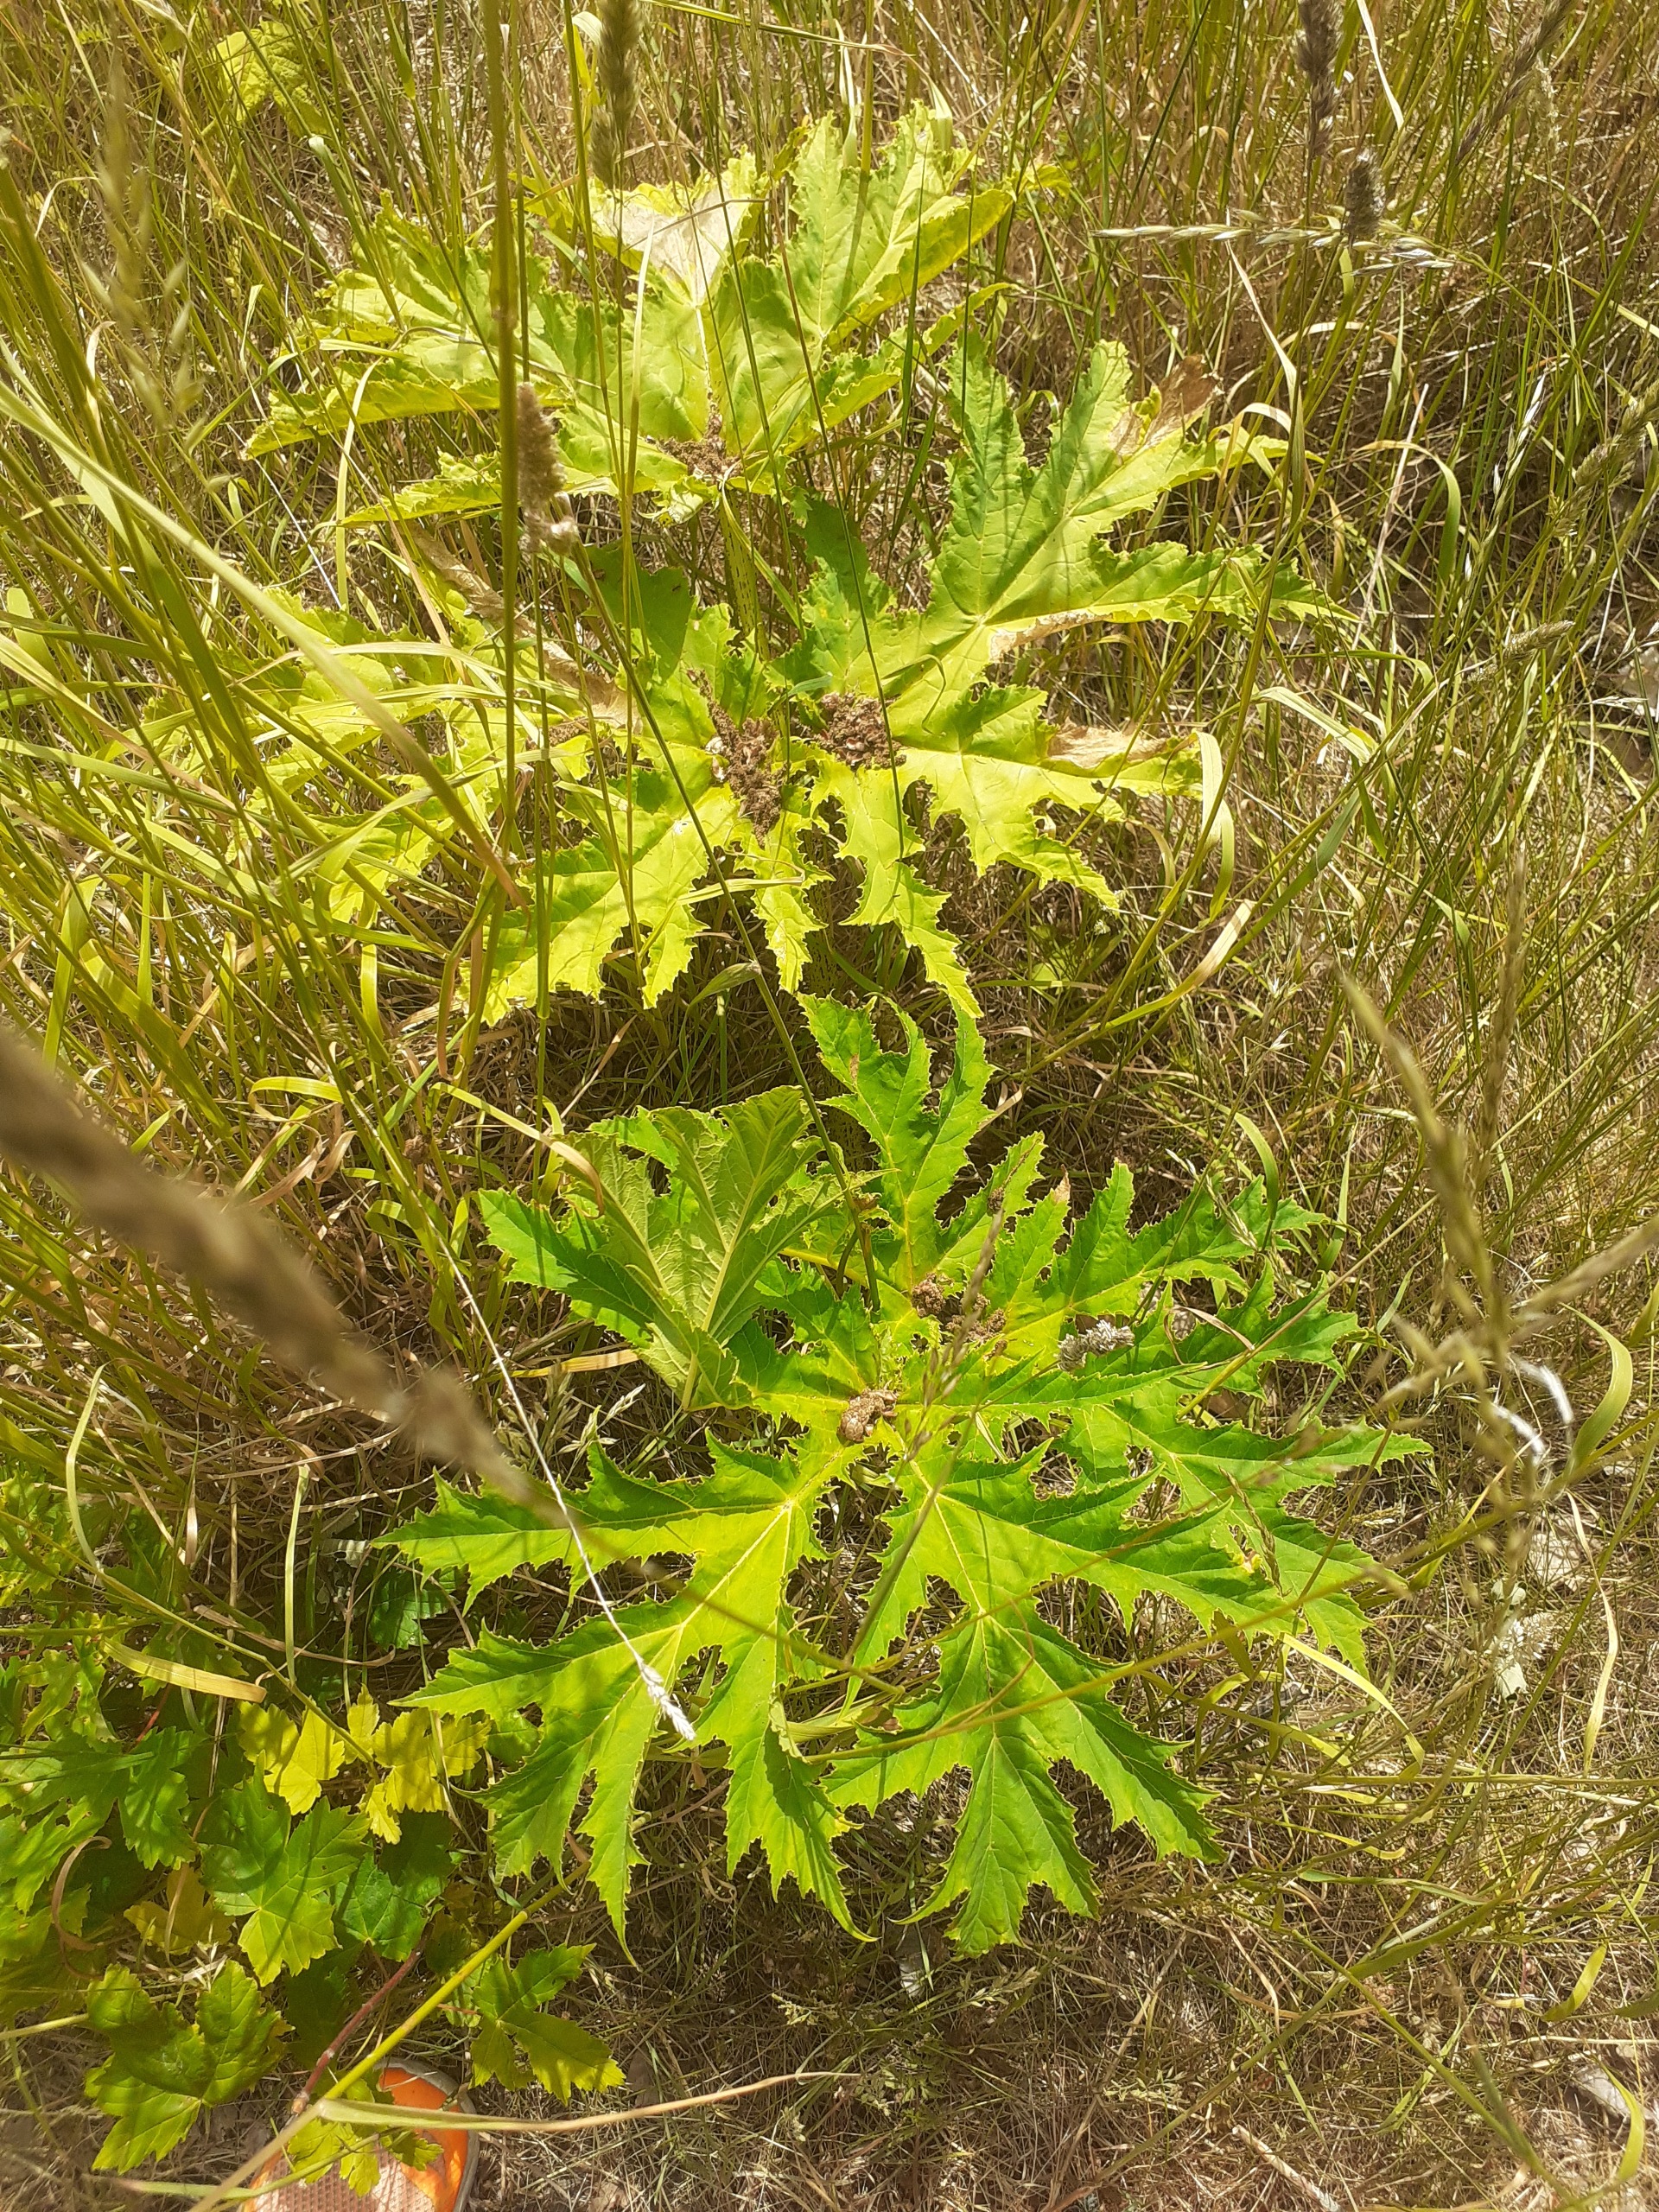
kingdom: Plantae
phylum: Tracheophyta
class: Magnoliopsida
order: Apiales
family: Apiaceae
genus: Heracleum
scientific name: Heracleum mantegazzianum
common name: Kæmpe-bjørneklo
